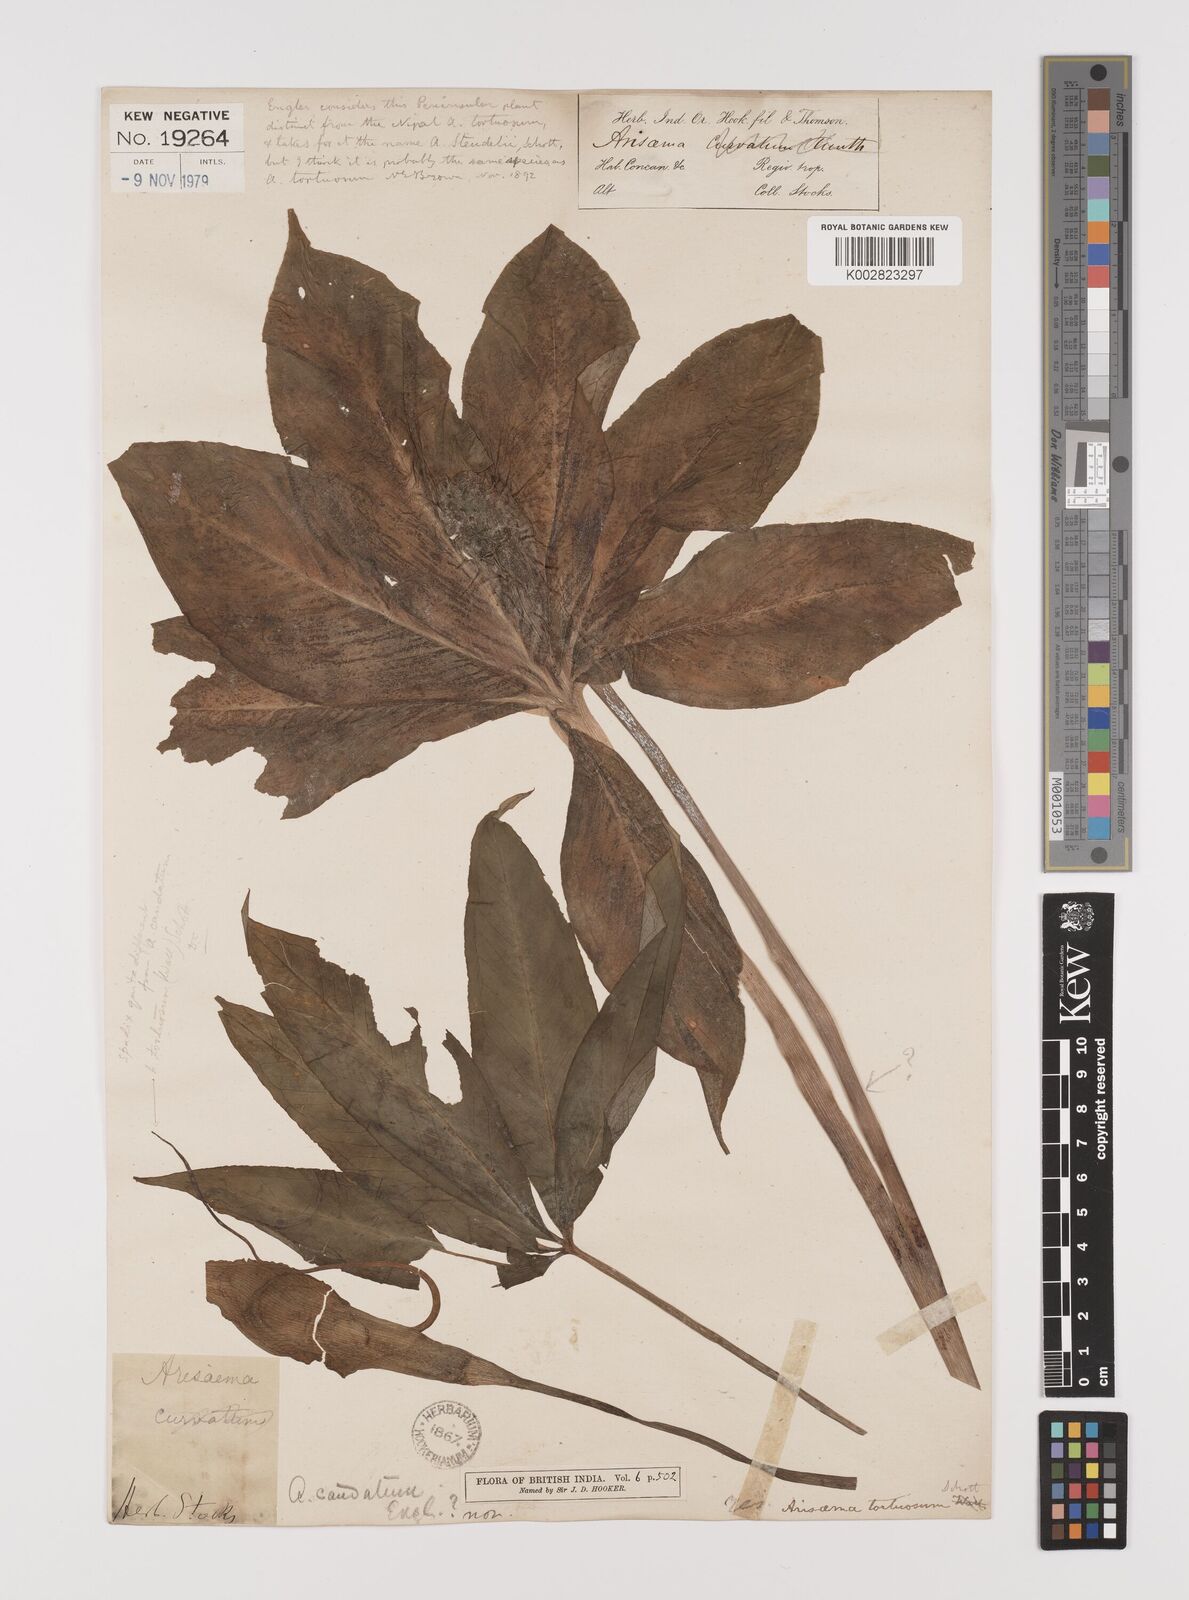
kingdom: Plantae
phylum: Tracheophyta
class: Liliopsida
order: Alismatales
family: Araceae
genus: Arisaema
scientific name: Arisaema tortuosum
